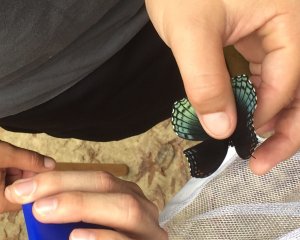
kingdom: Animalia
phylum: Arthropoda
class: Insecta
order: Lepidoptera
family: Nymphalidae
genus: Limenitis
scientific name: Limenitis astyanax
